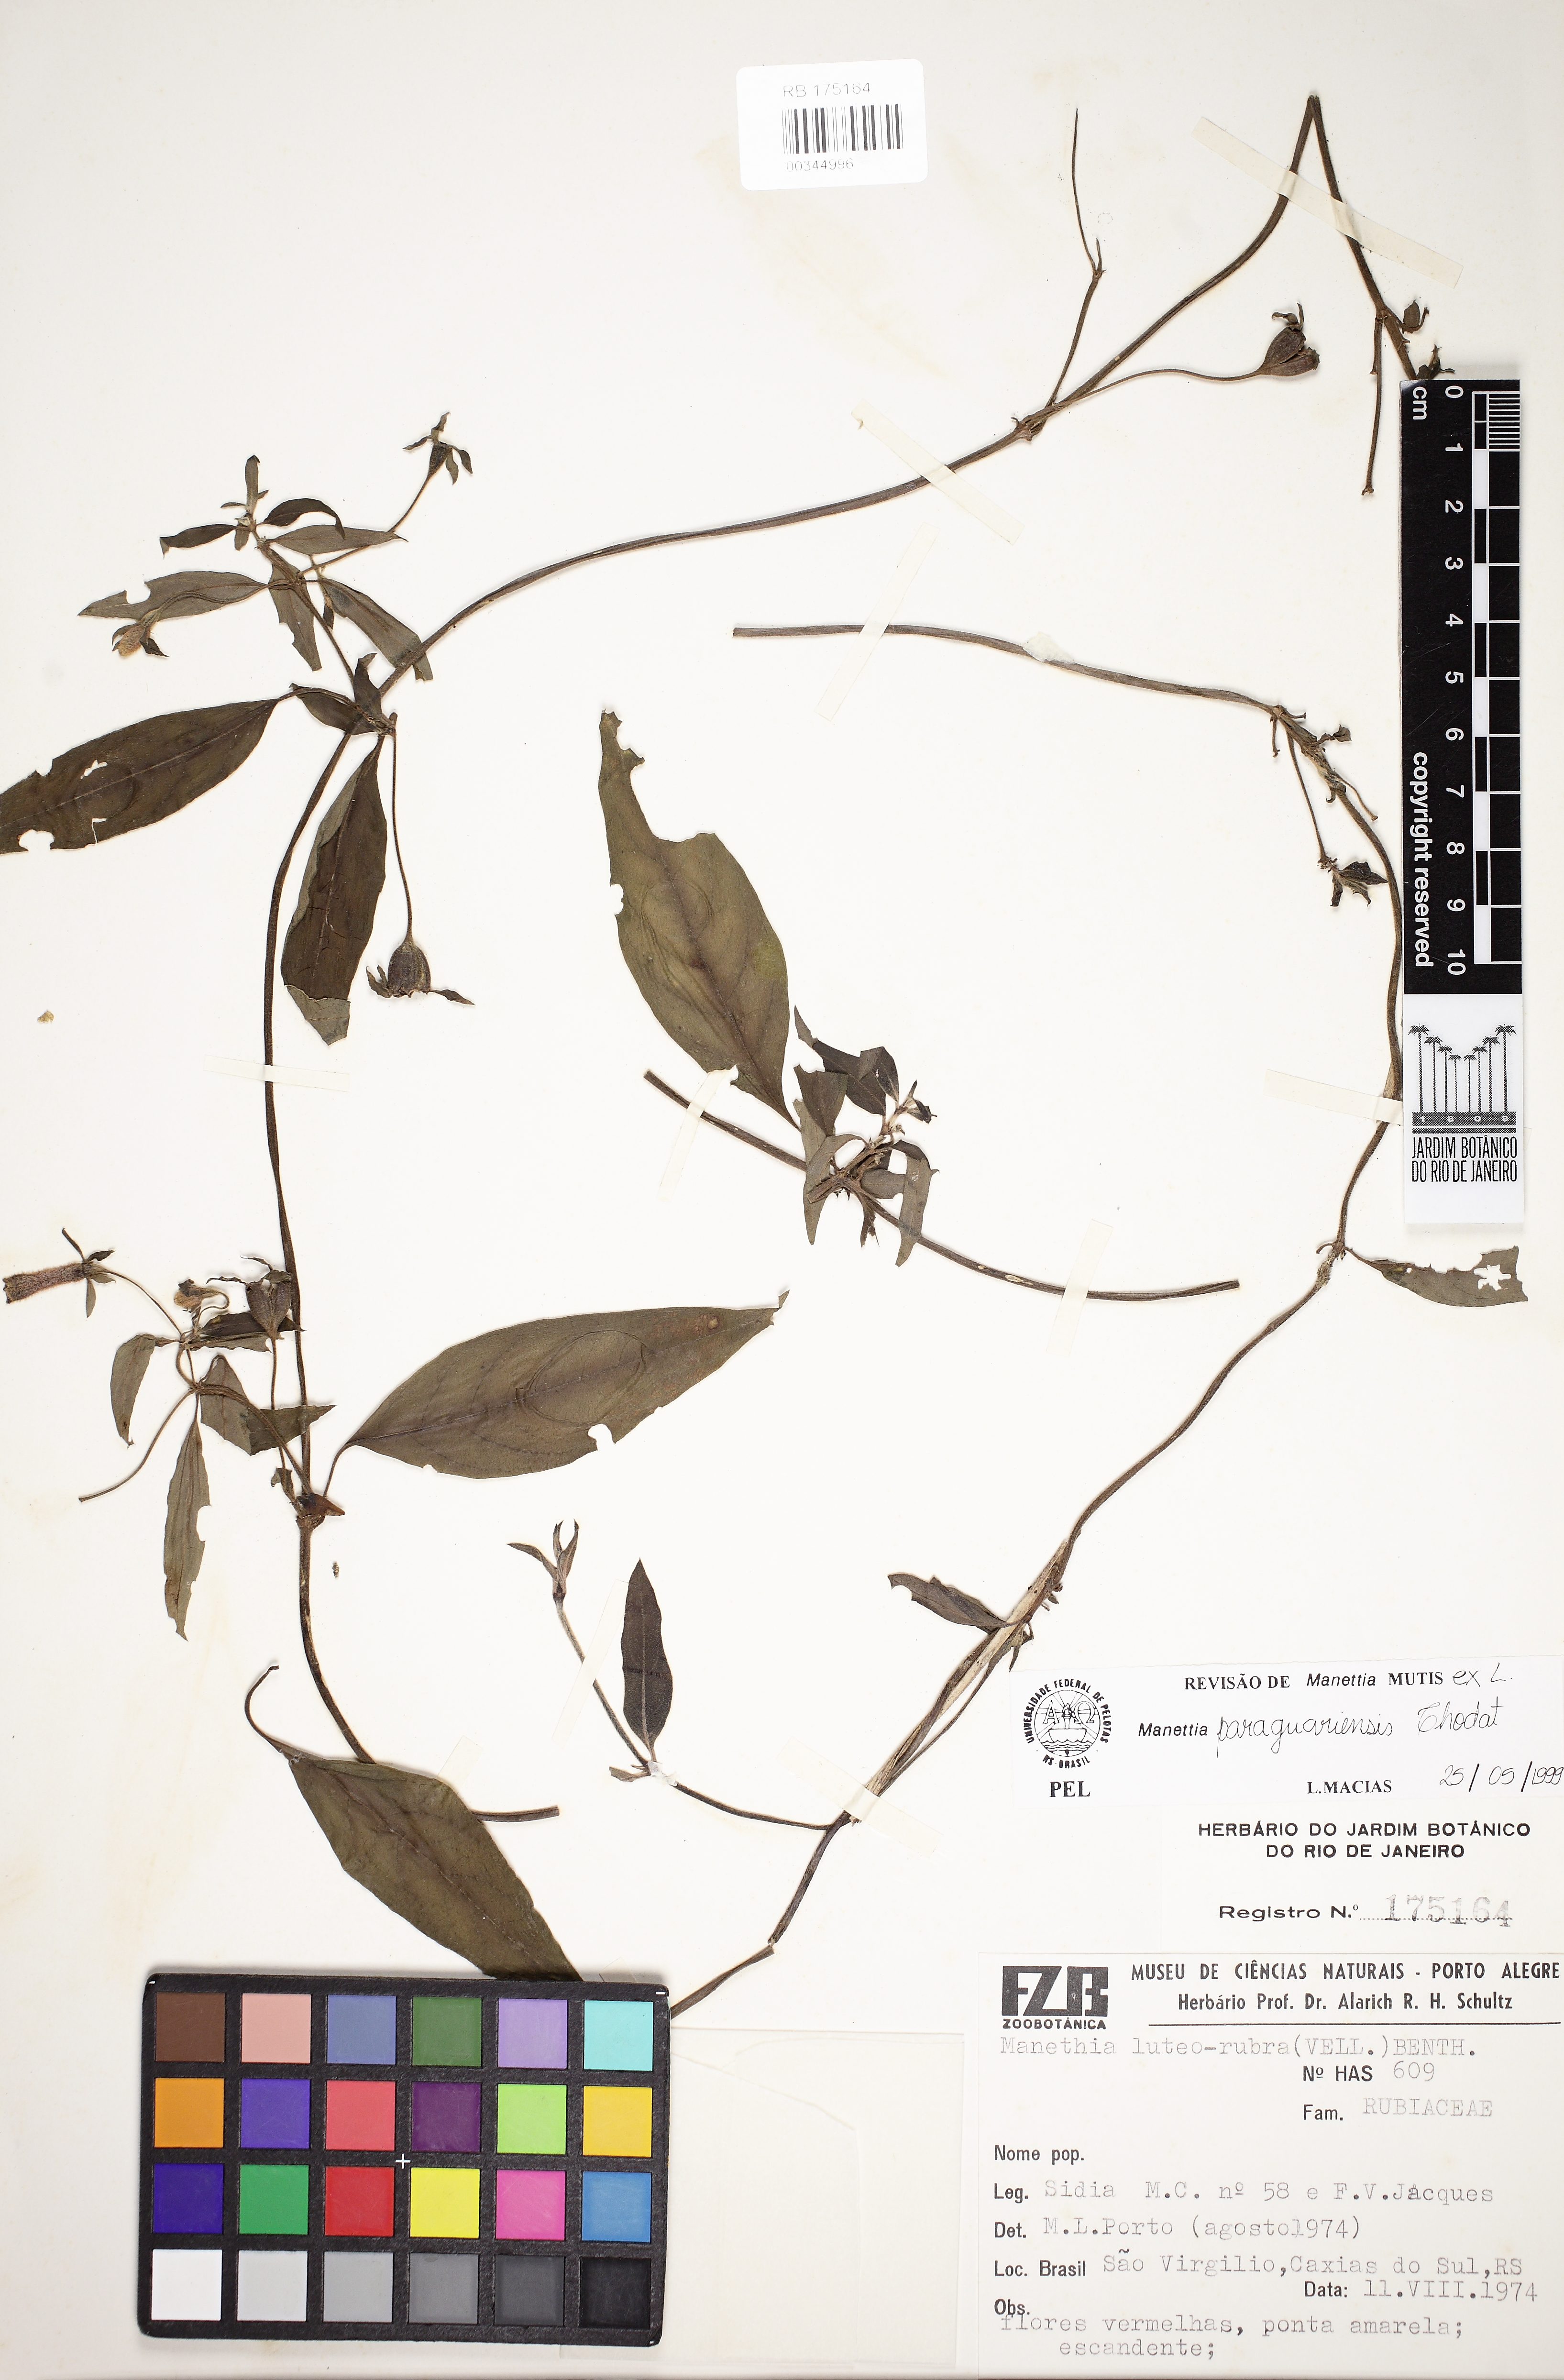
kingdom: Plantae
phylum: Tracheophyta
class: Magnoliopsida
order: Gentianales
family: Rubiaceae
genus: Manettia
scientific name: Manettia paraguariensis
